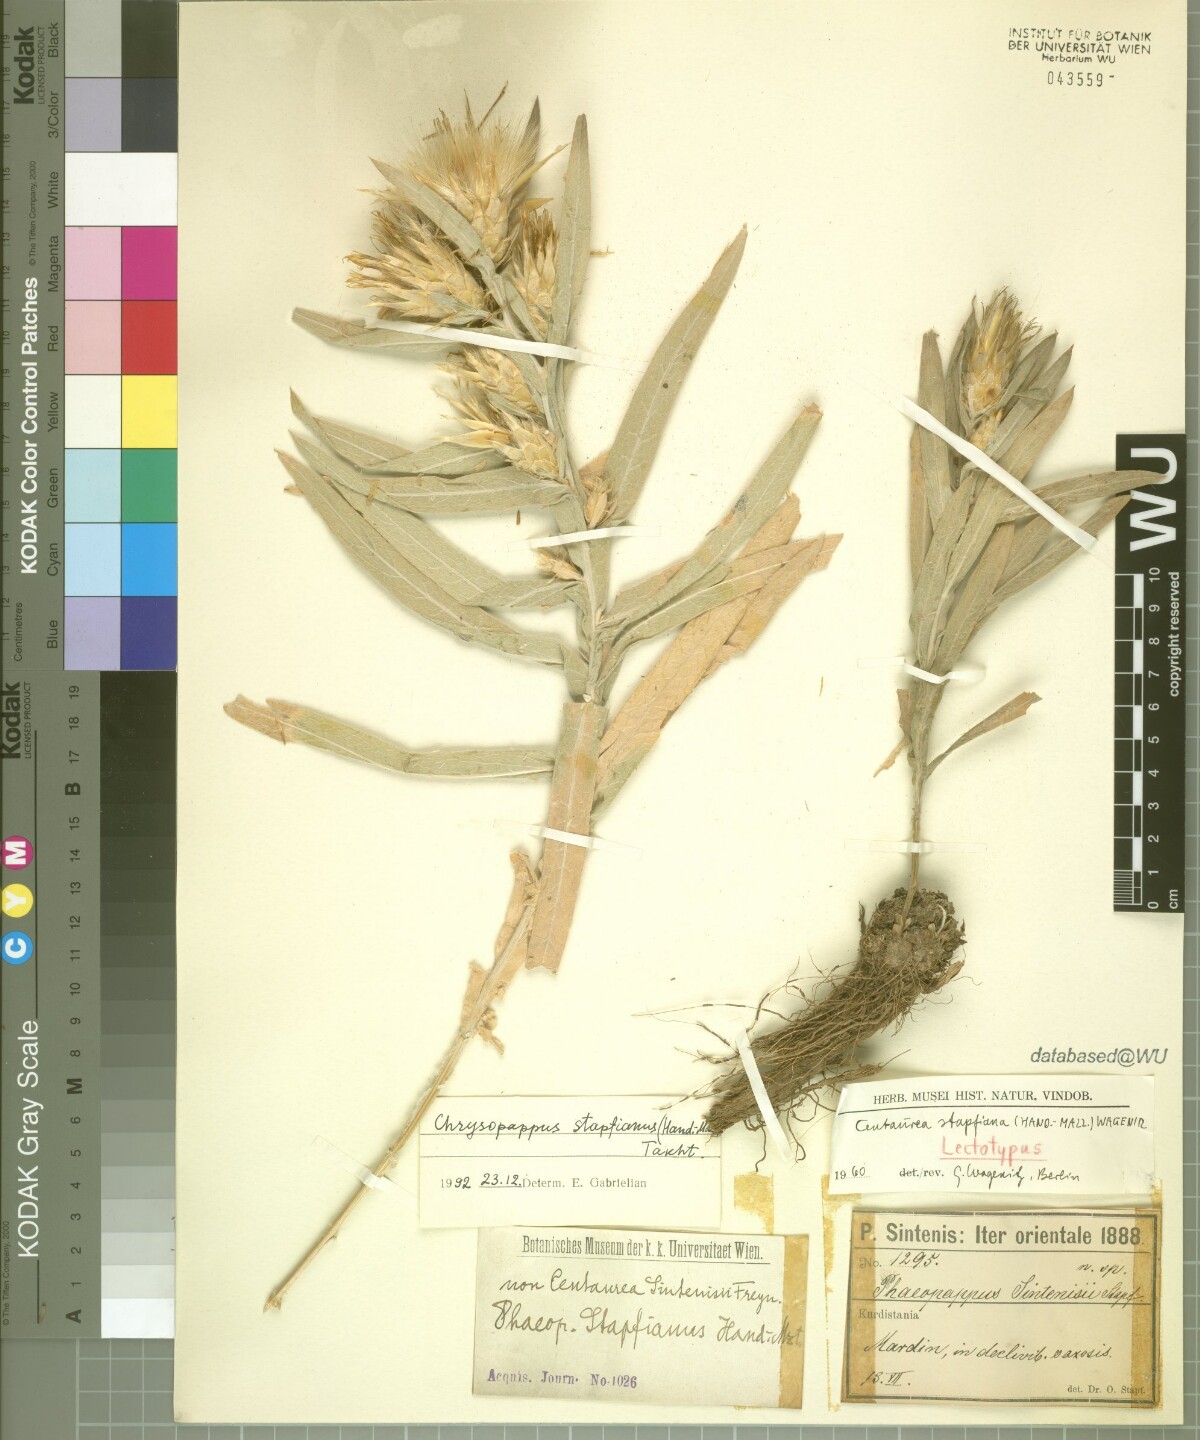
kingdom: Plantae
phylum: Tracheophyta
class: Magnoliopsida
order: Asterales
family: Asteraceae
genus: Centaurea
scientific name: Centaurea stapfiana
